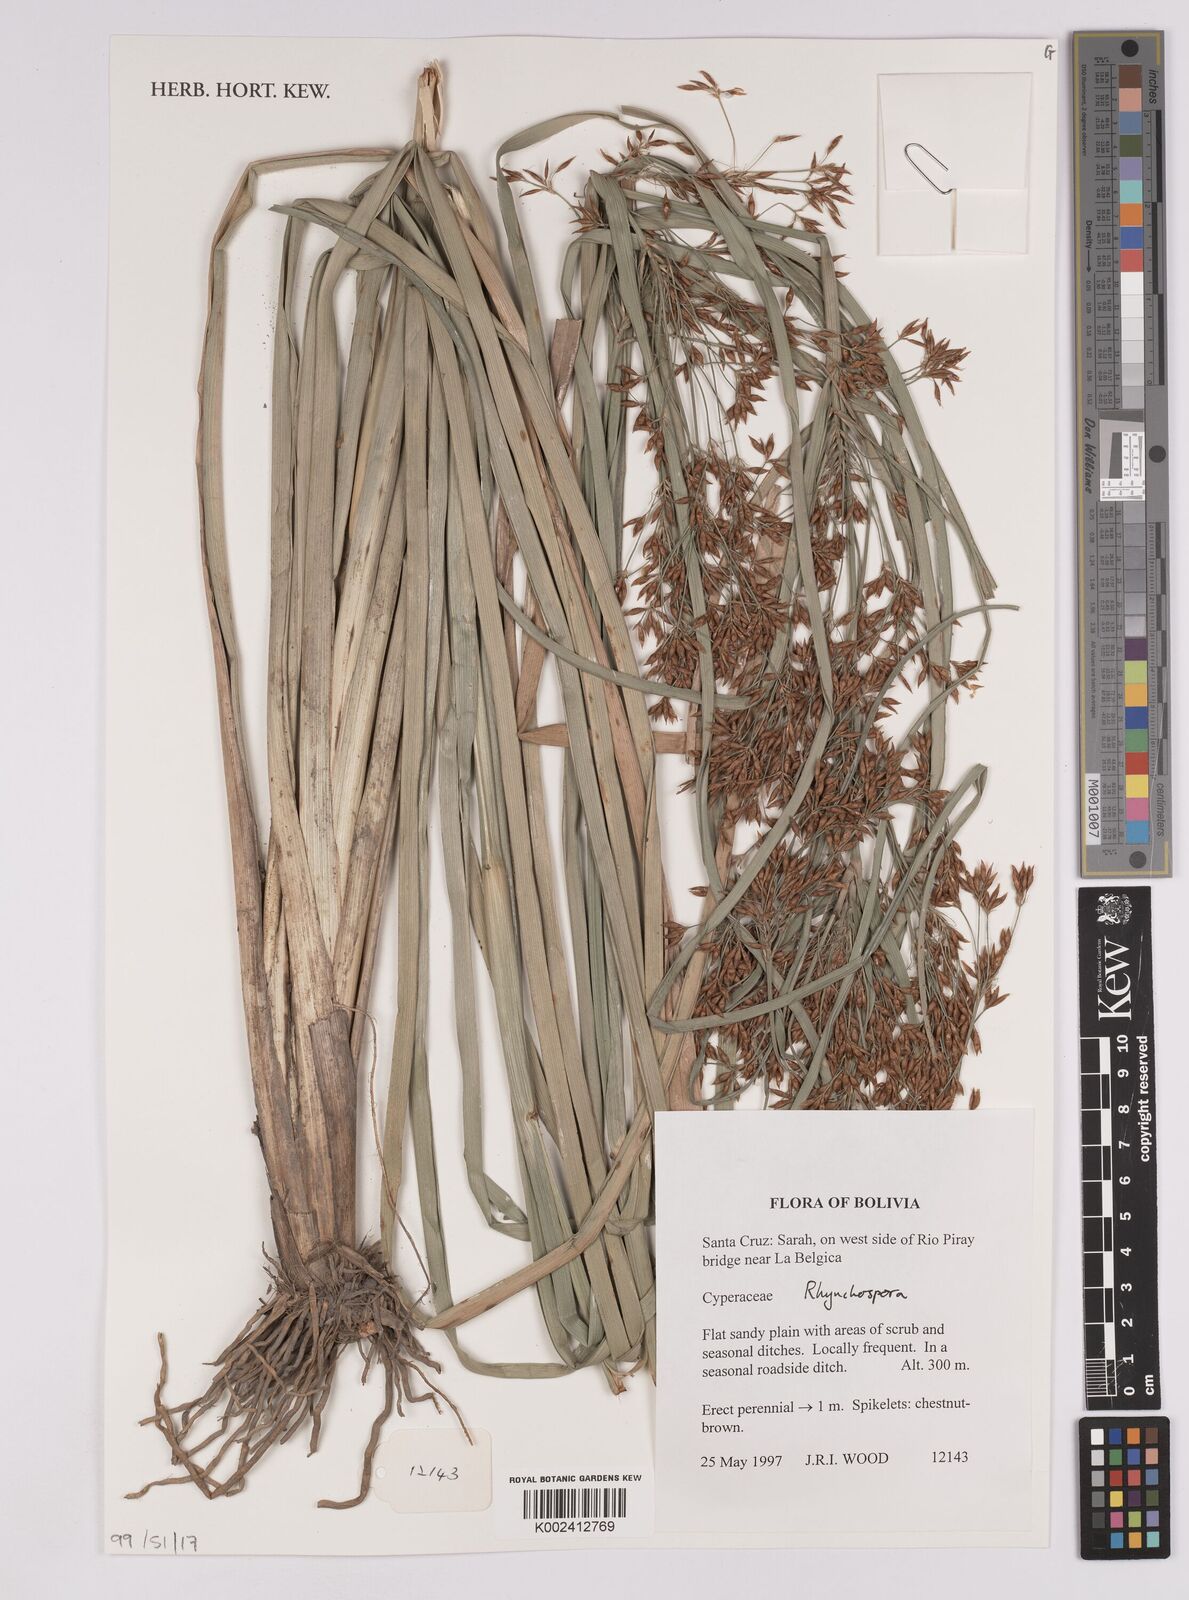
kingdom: Plantae
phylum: Tracheophyta
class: Liliopsida
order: Poales
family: Cyperaceae
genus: Rhynchospora
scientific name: Rhynchospora
